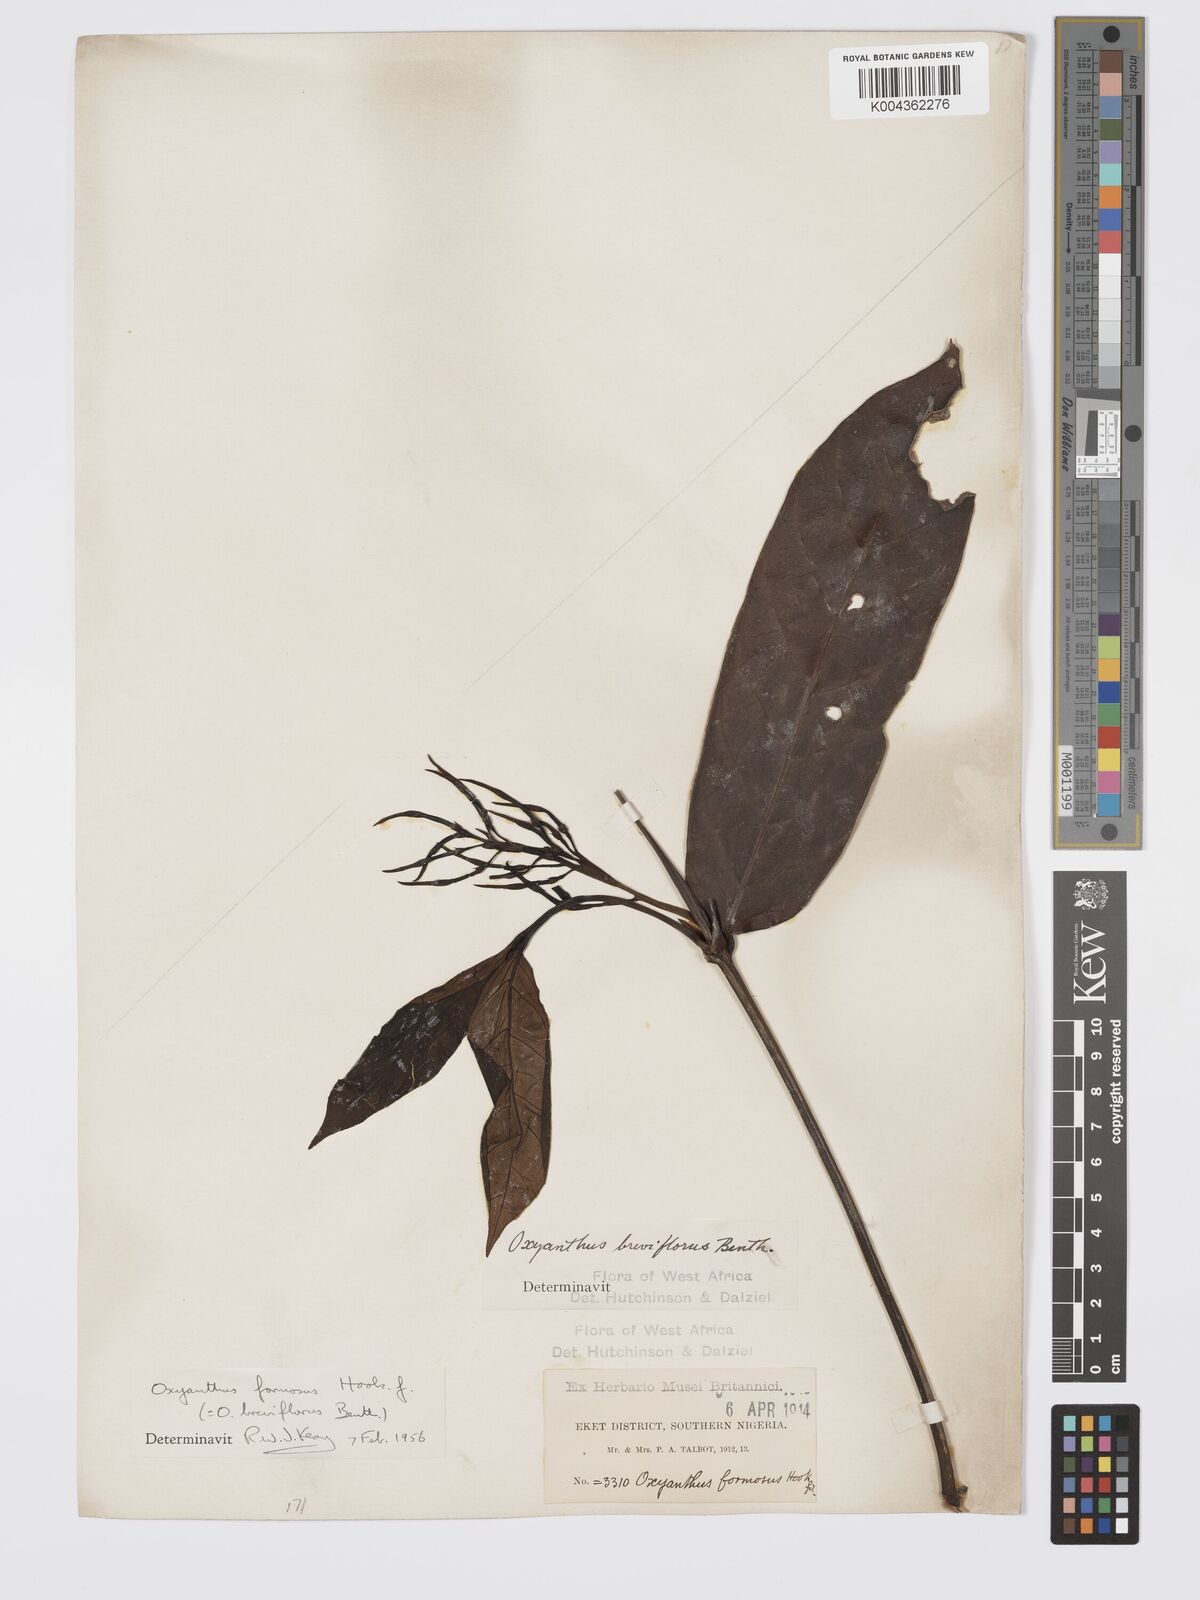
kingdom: Plantae
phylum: Tracheophyta
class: Magnoliopsida
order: Gentianales
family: Rubiaceae
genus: Oxyanthus
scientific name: Oxyanthus formosus
